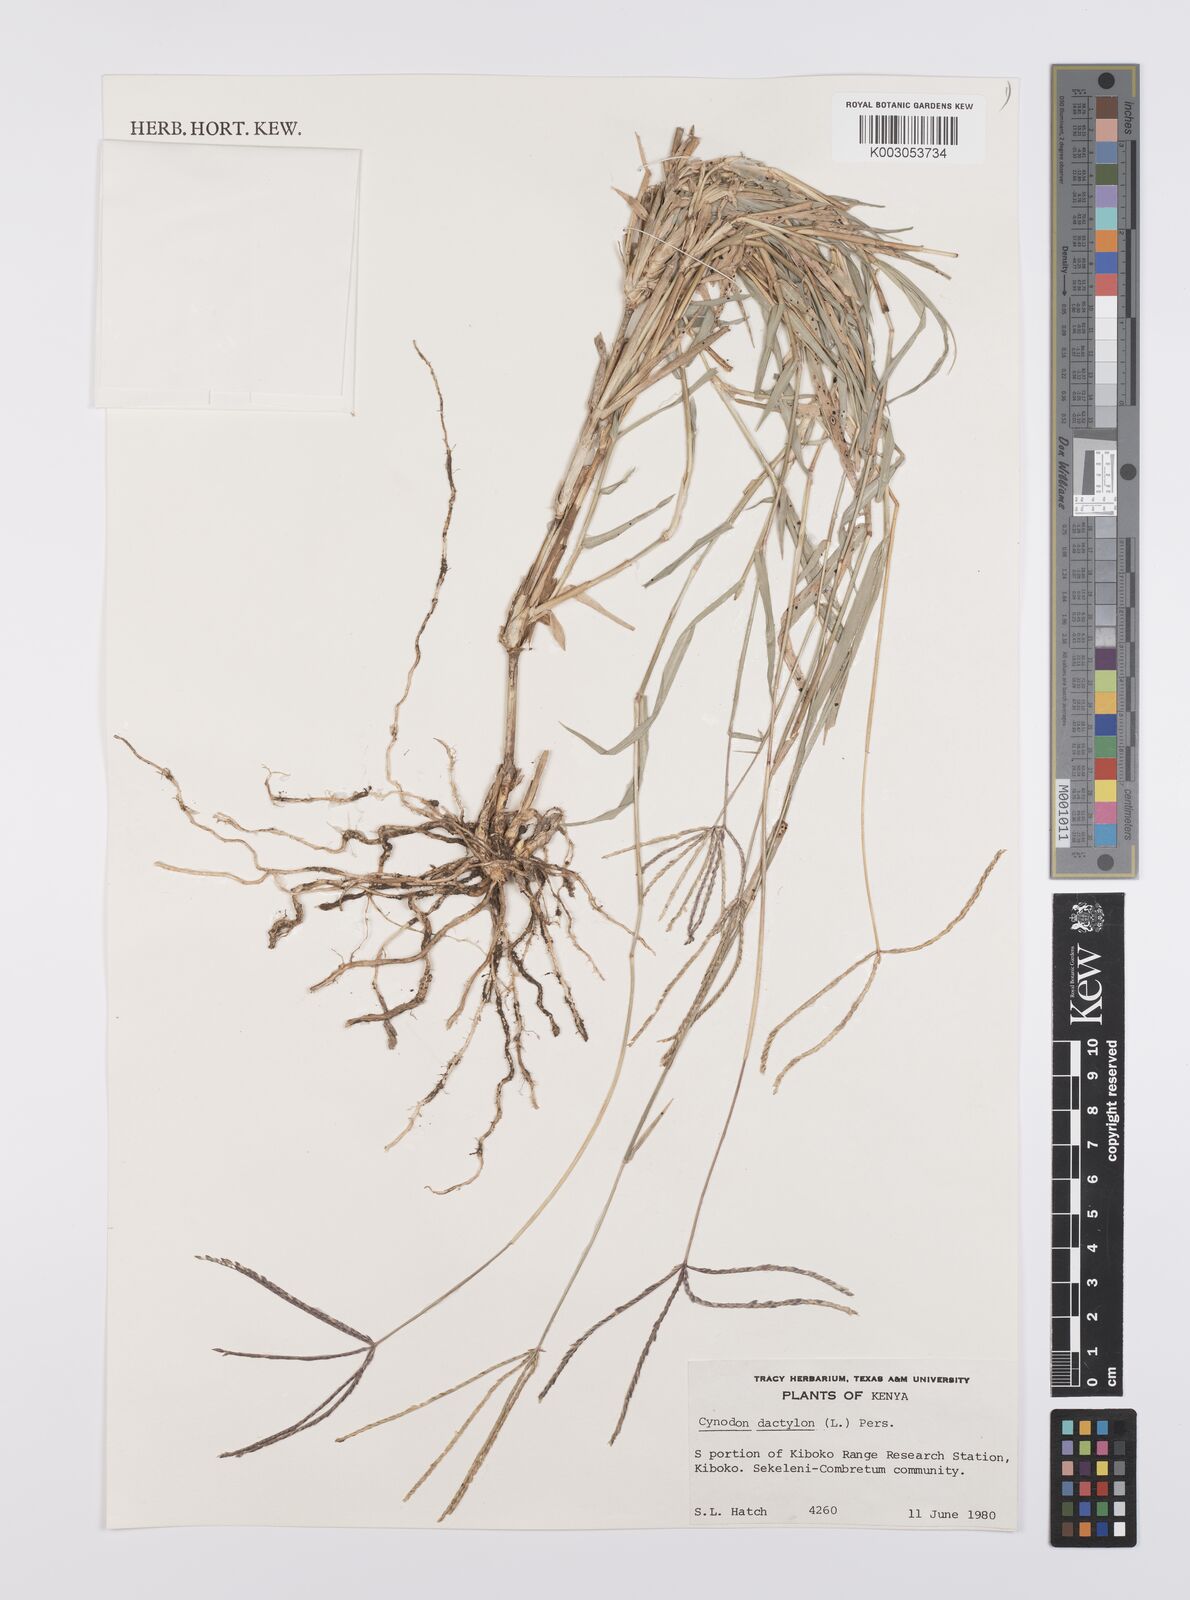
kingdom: Plantae
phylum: Tracheophyta
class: Liliopsida
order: Poales
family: Poaceae
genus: Cynodon
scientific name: Cynodon dactylon
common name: Bermuda grass
